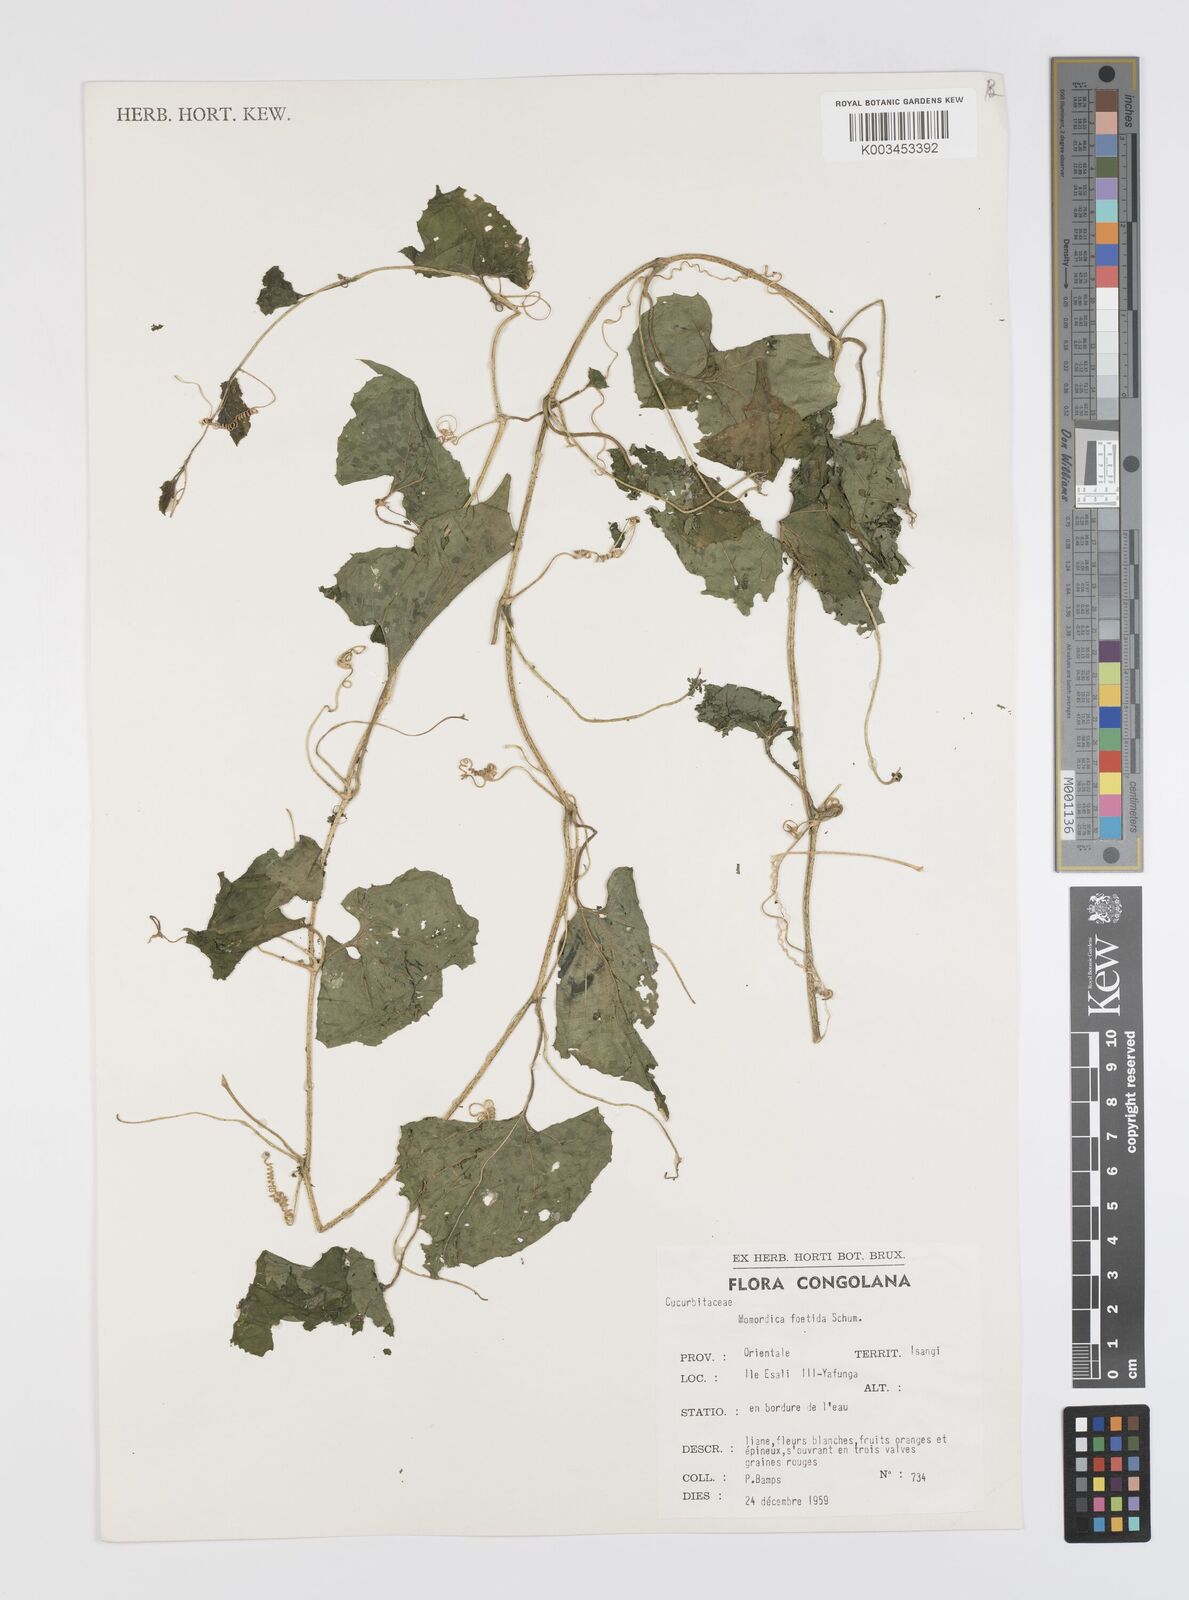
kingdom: Plantae
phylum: Tracheophyta
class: Magnoliopsida
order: Cucurbitales
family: Cucurbitaceae
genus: Momordica
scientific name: Momordica foetida
